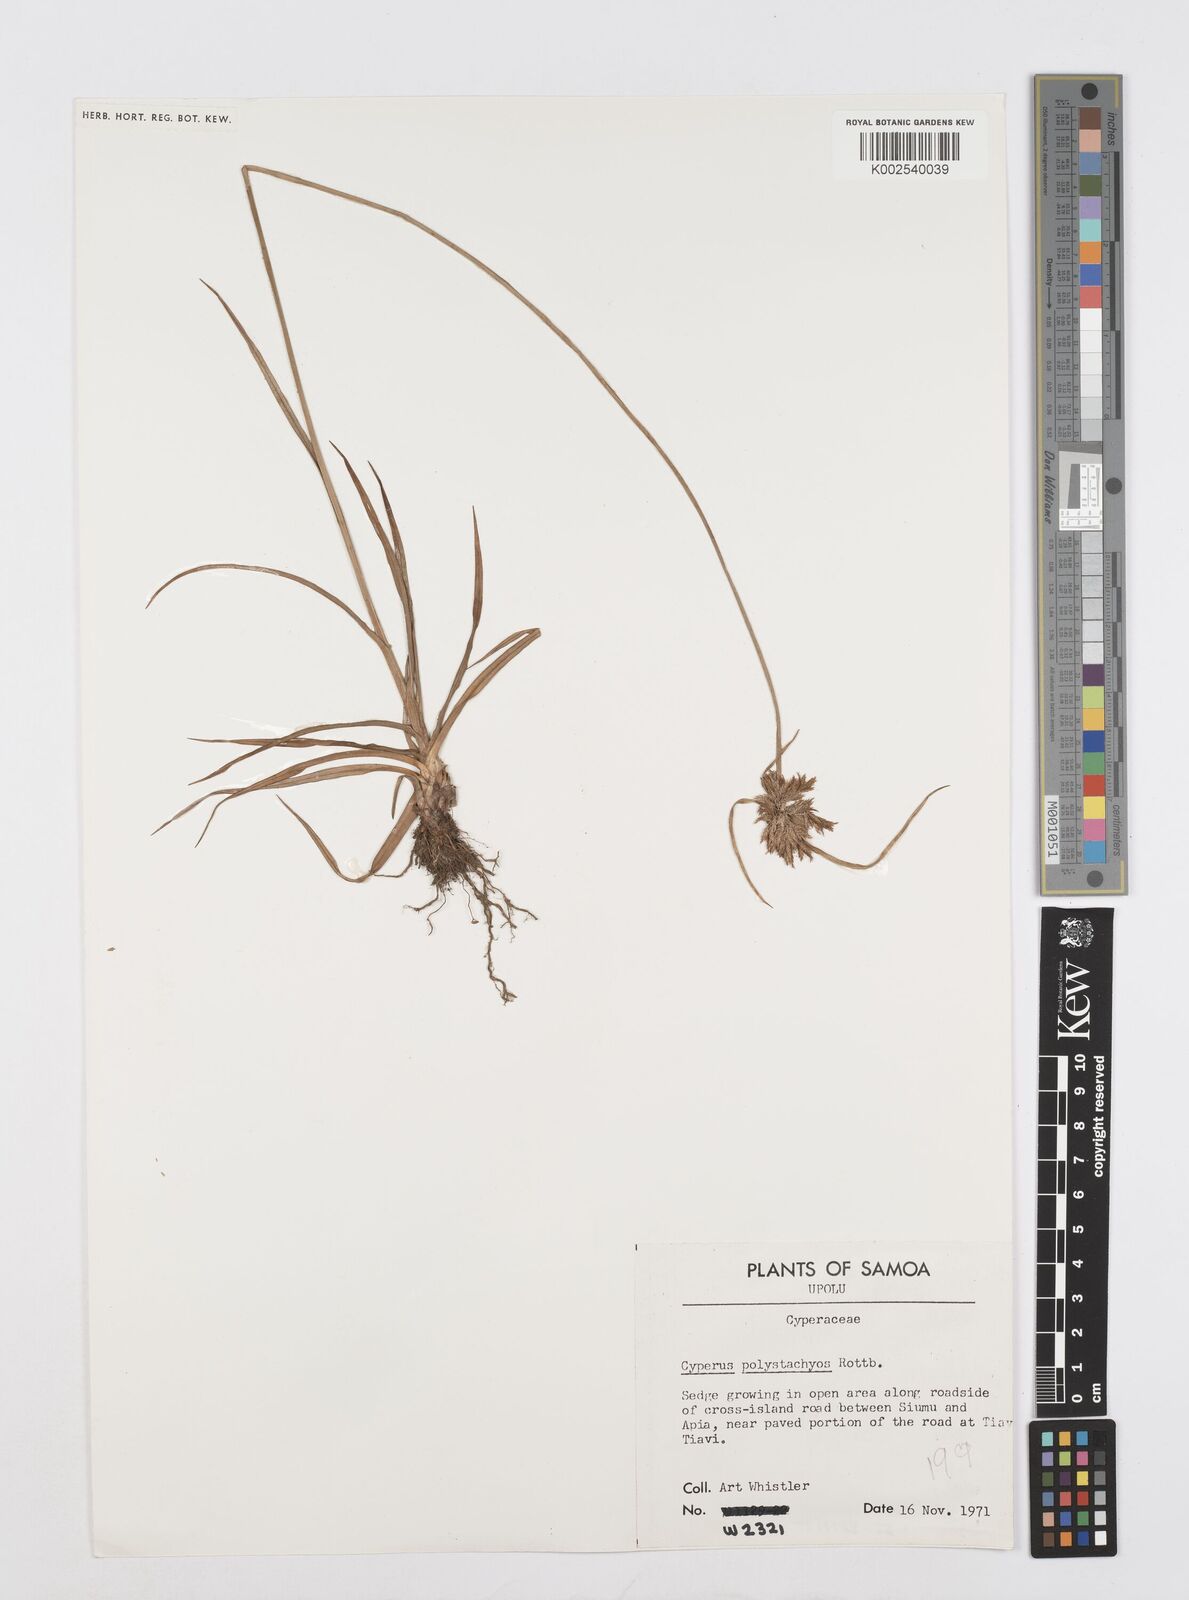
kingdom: Plantae
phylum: Tracheophyta
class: Liliopsida
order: Poales
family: Cyperaceae
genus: Cyperus
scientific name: Cyperus polystachyos
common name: Bunchy flat sedge
